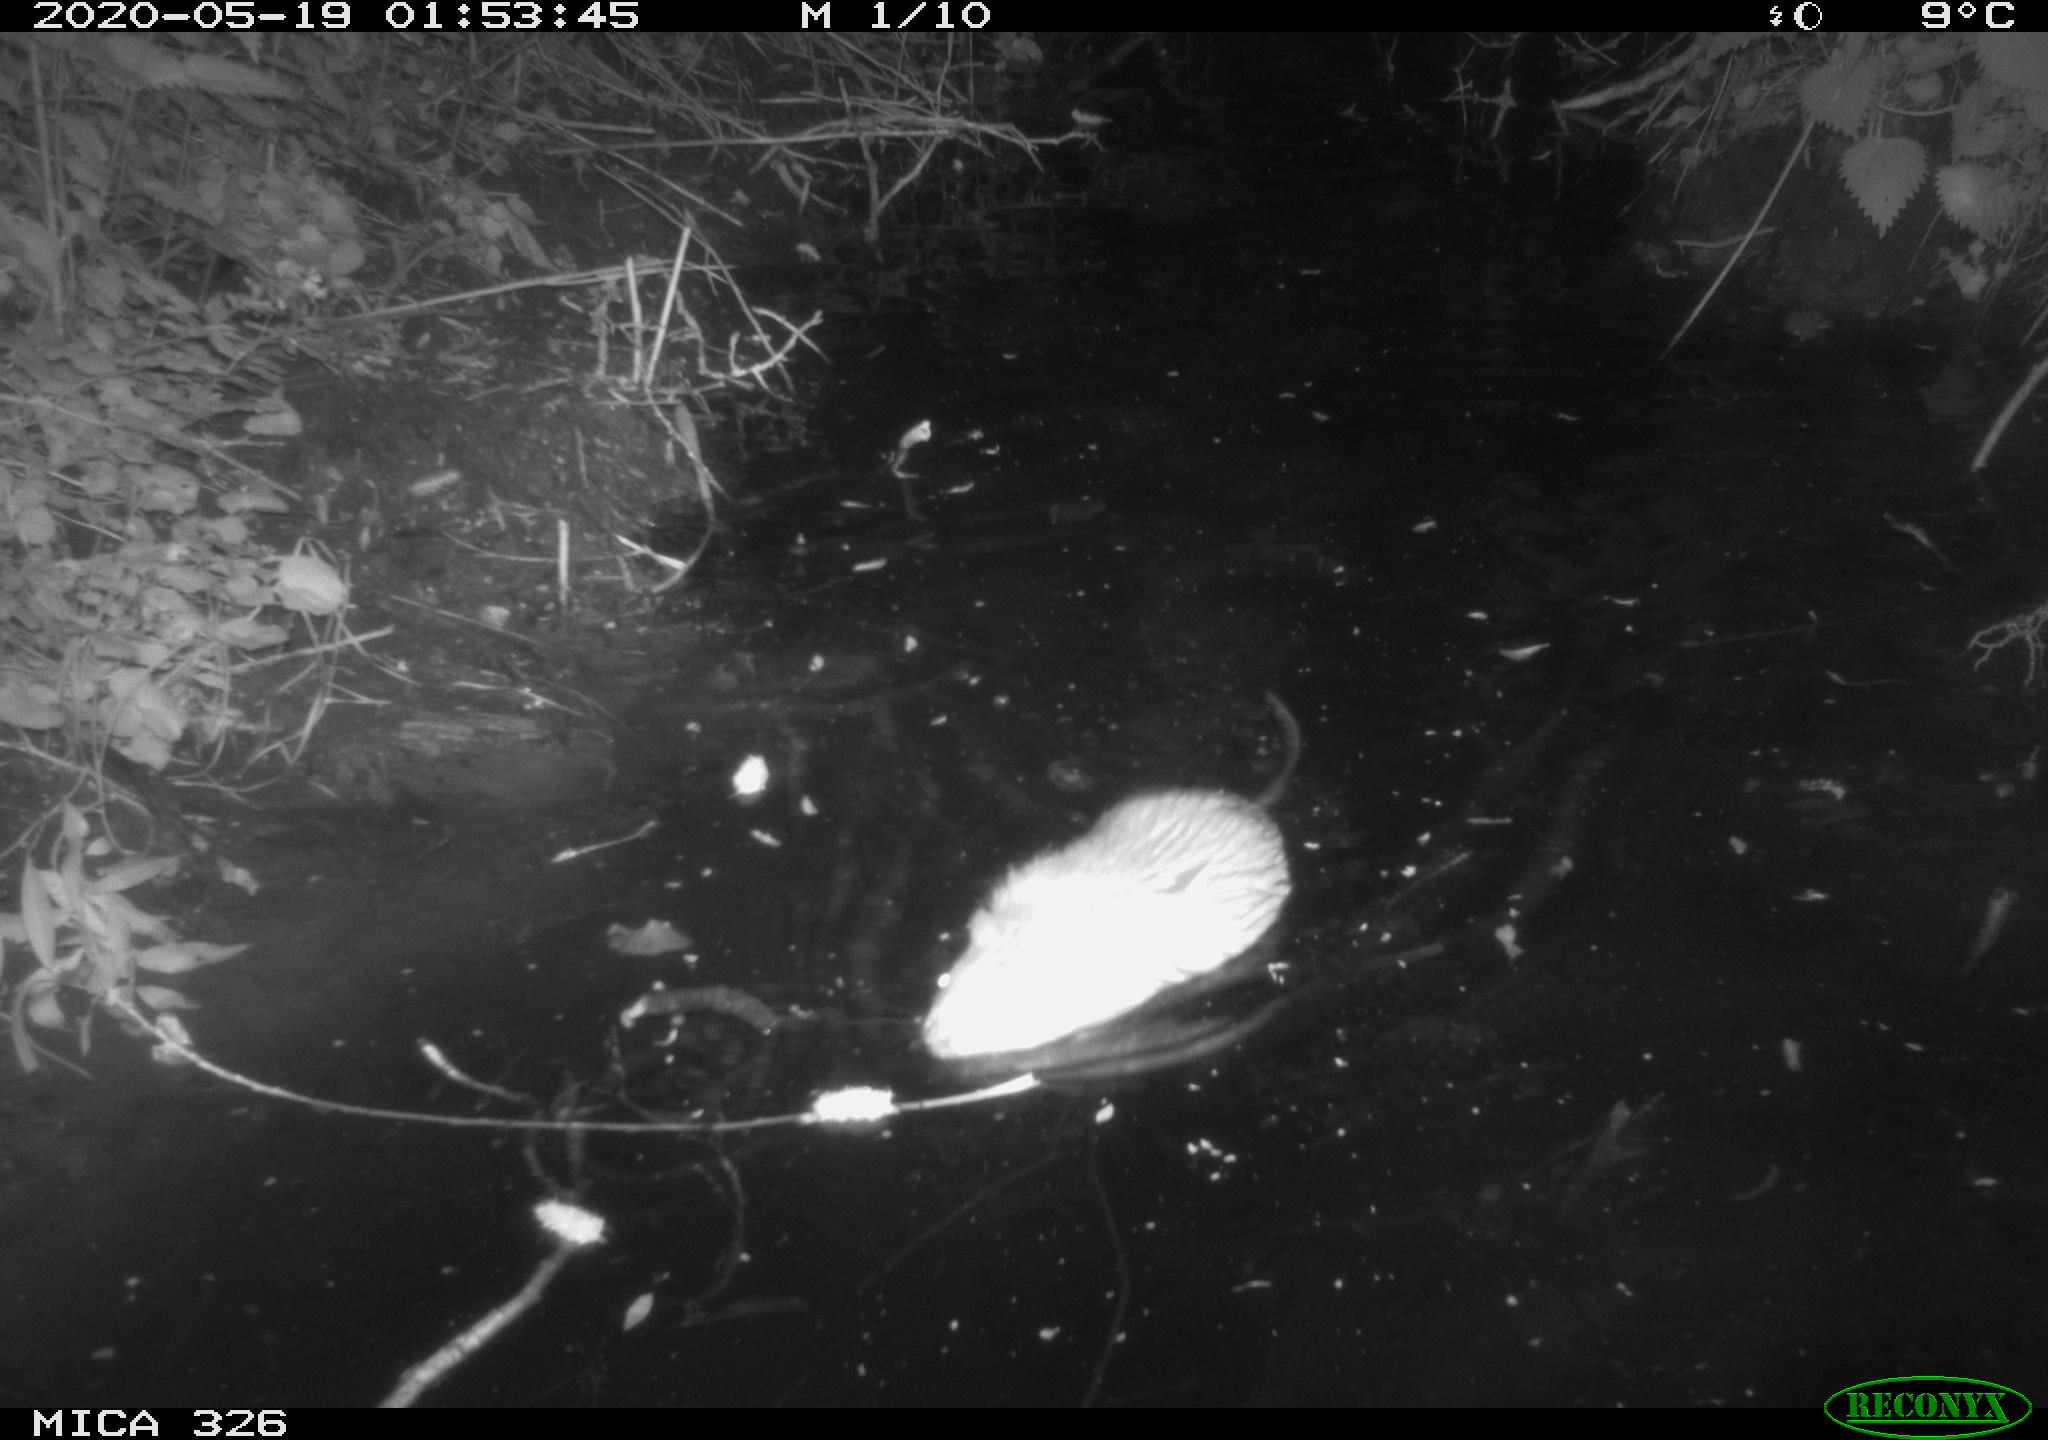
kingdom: Animalia
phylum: Chordata
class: Mammalia
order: Rodentia
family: Cricetidae
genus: Ondatra
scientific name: Ondatra zibethicus
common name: Muskrat
